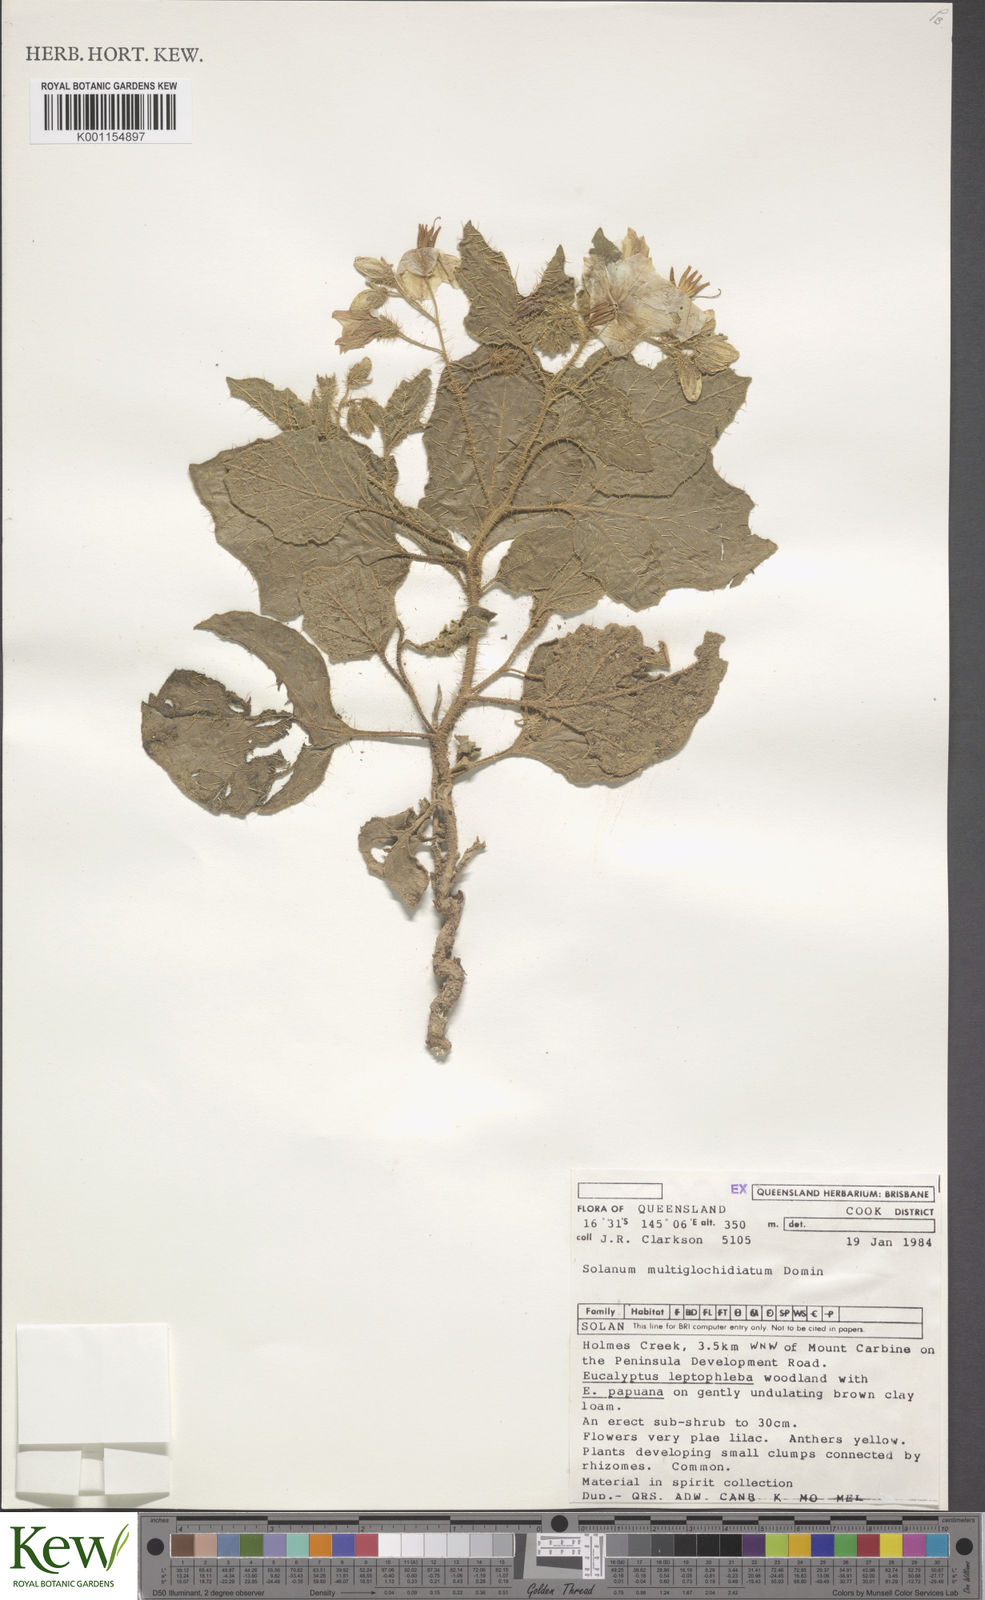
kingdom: Plantae
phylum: Tracheophyta
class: Magnoliopsida
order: Solanales
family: Solanaceae
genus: Solanum
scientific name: Solanum multiglochidiatum
